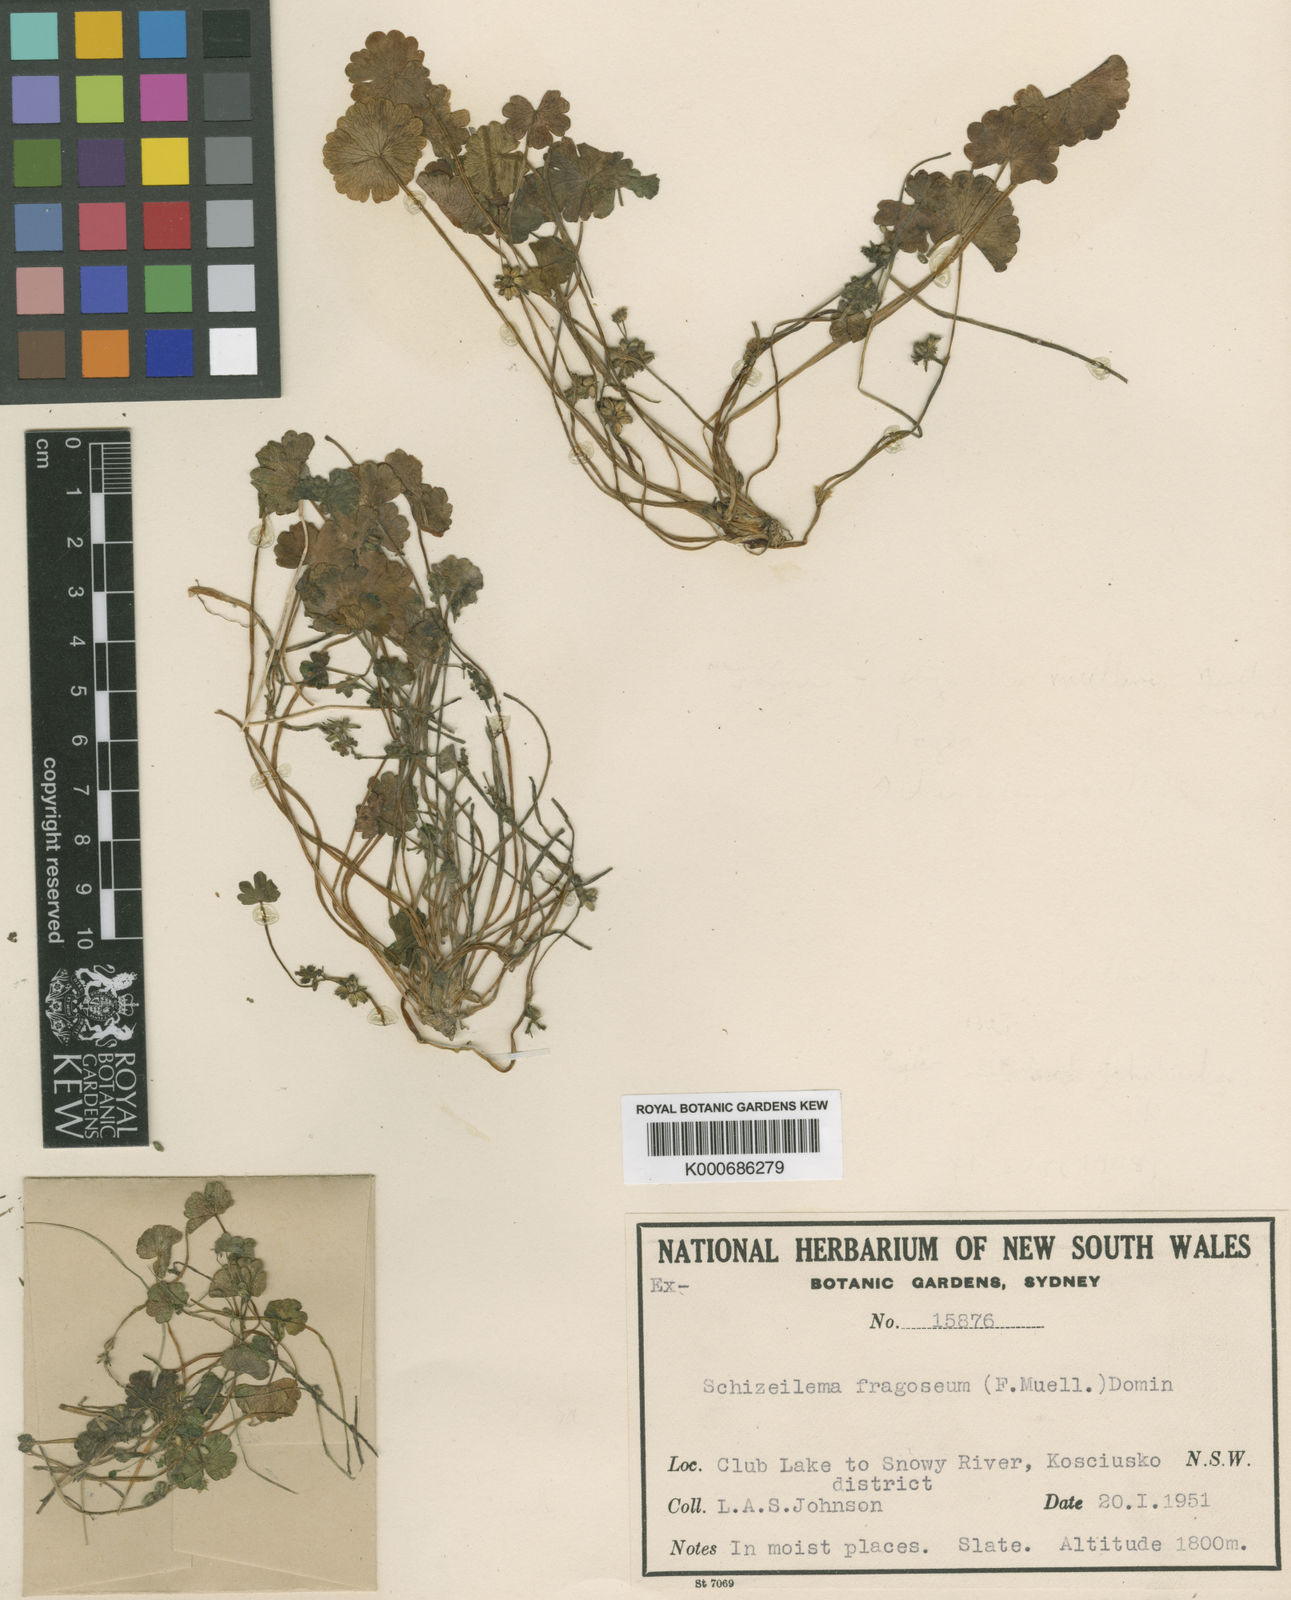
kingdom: Plantae
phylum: Tracheophyta
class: Magnoliopsida
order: Apiales
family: Apiaceae
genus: Azorella
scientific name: Azorella fragosea
